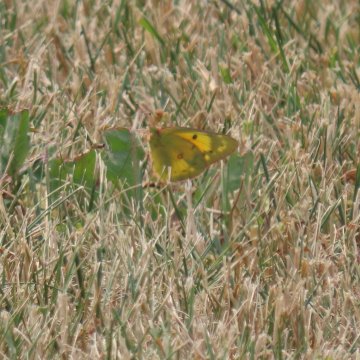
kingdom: Animalia
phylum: Arthropoda
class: Insecta
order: Lepidoptera
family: Pieridae
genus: Colias
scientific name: Colias eurytheme
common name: Orange Sulphur
